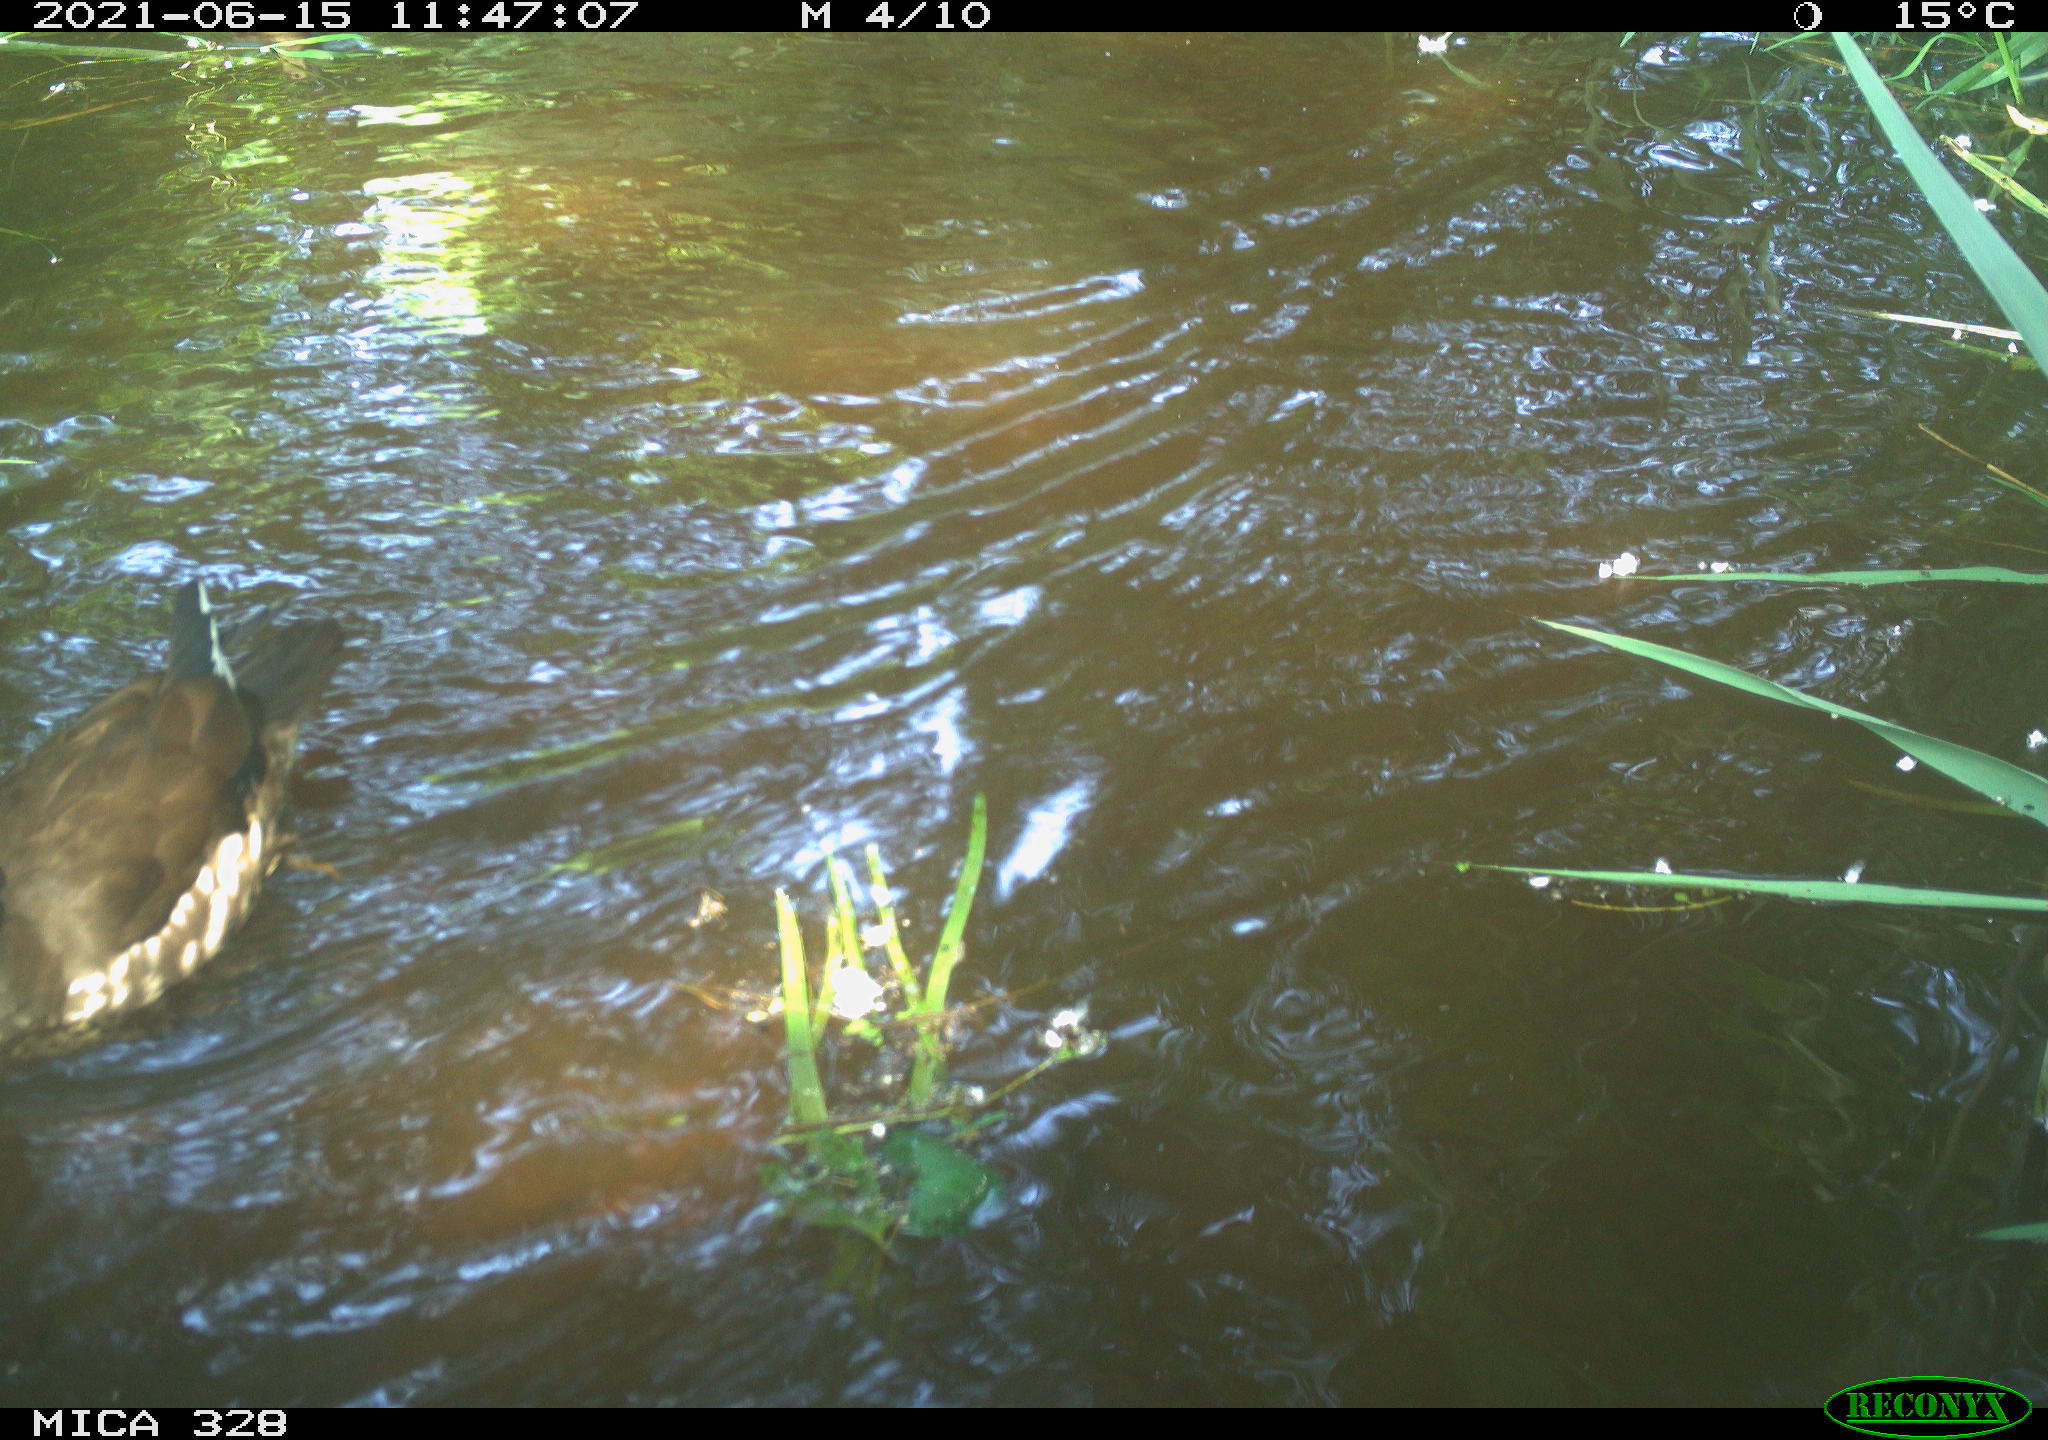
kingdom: Animalia
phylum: Chordata
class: Aves
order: Anseriformes
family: Anatidae
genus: Aix
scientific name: Aix galericulata
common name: Mandarin duck
